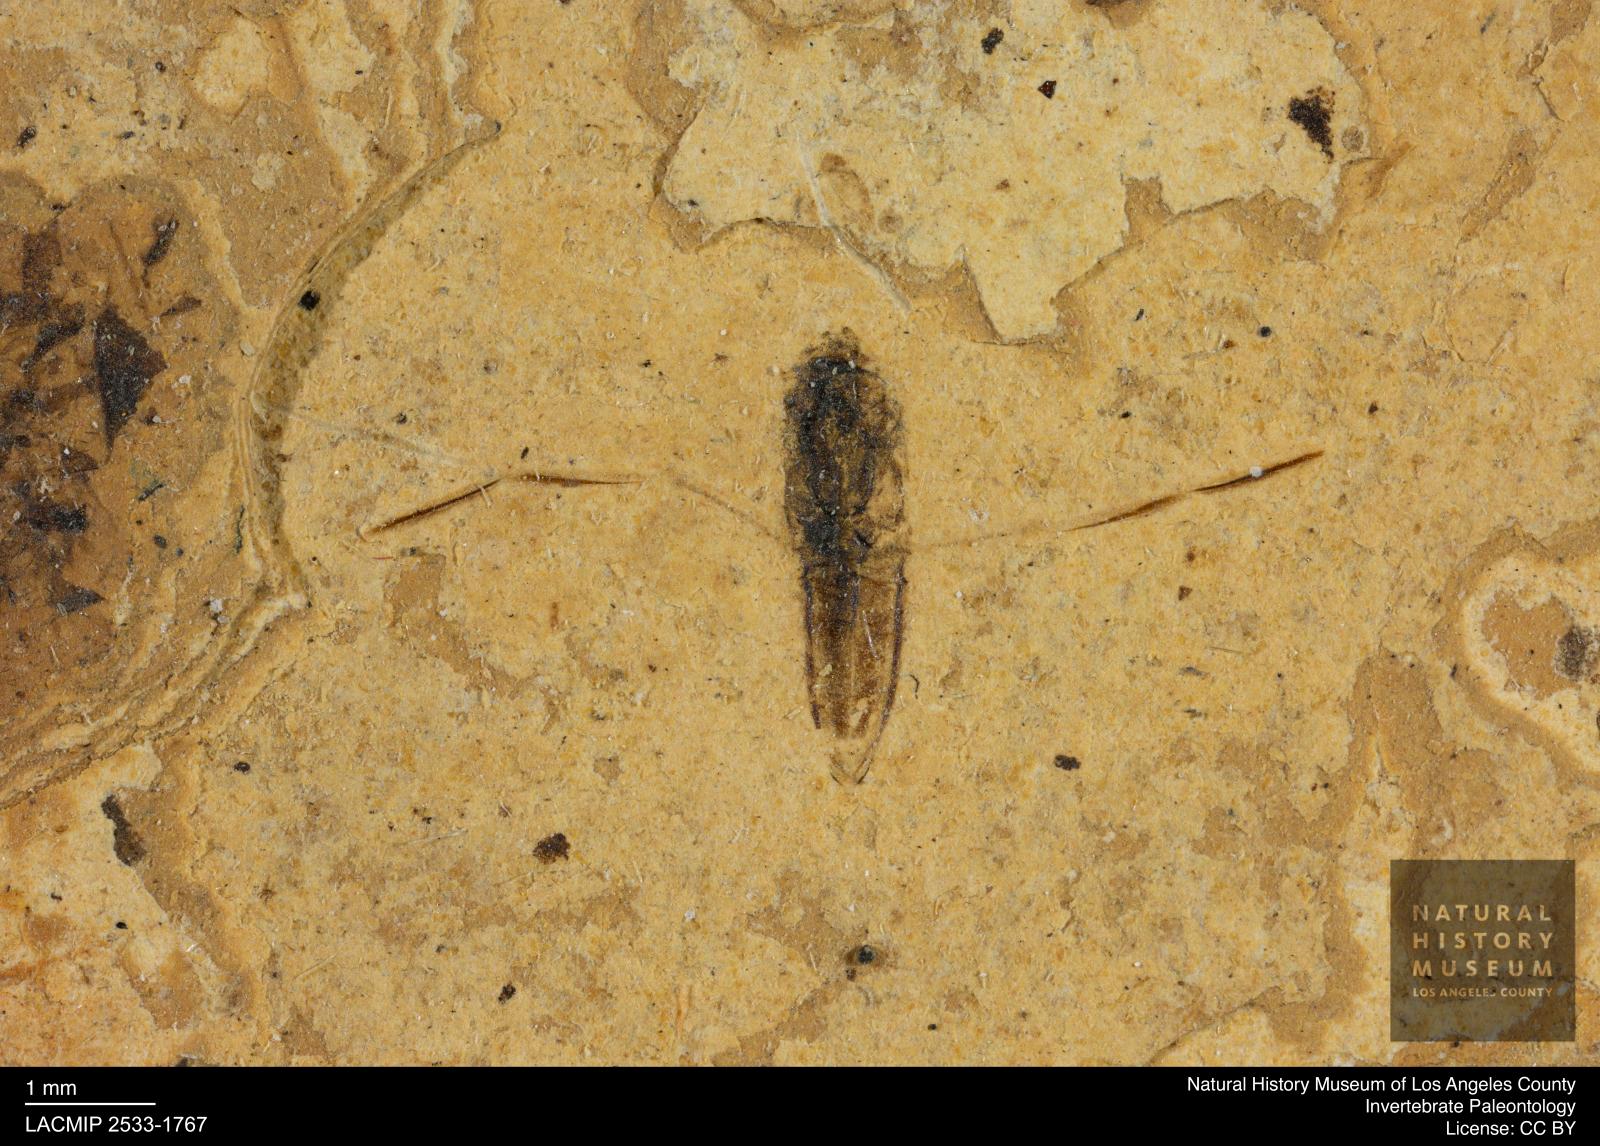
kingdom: Animalia
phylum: Arthropoda
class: Insecta
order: Hemiptera
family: Notonectidae
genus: Notonecta
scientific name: Notonecta
